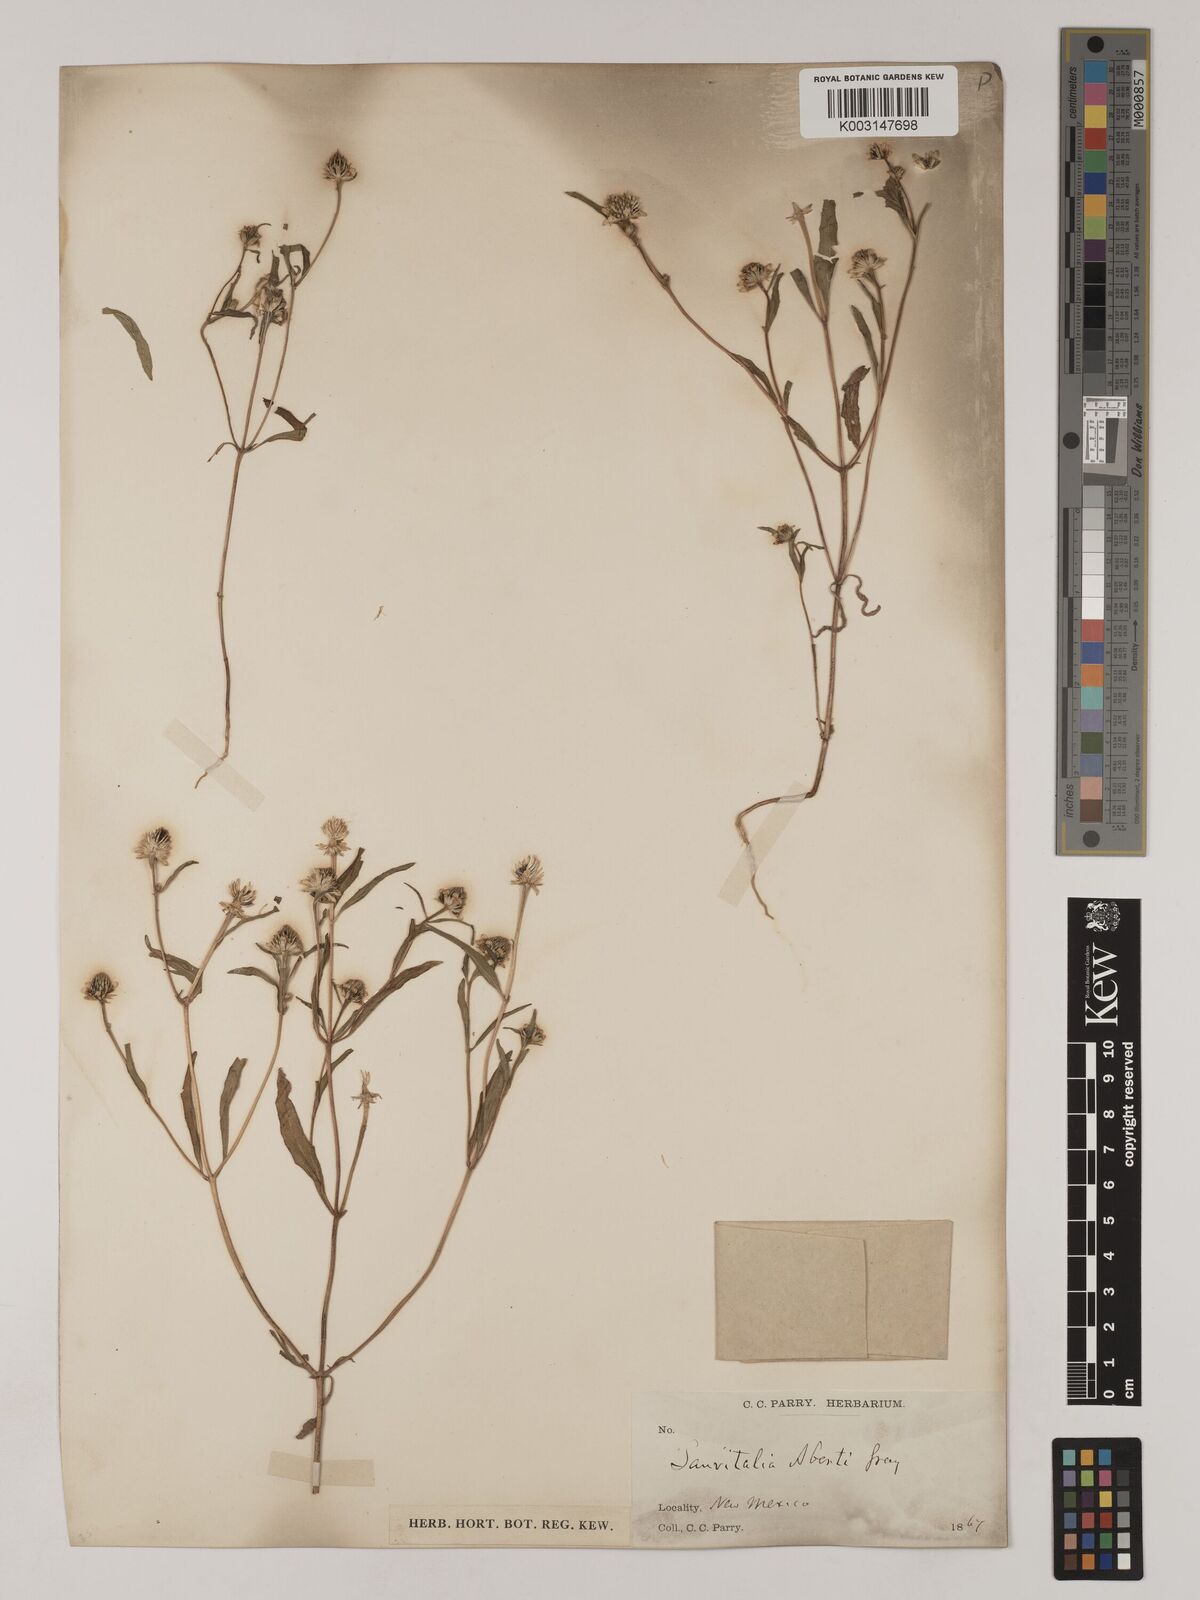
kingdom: Plantae
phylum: Tracheophyta
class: Magnoliopsida
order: Asterales
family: Asteraceae
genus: Sanvitalia
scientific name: Sanvitalia abertii
